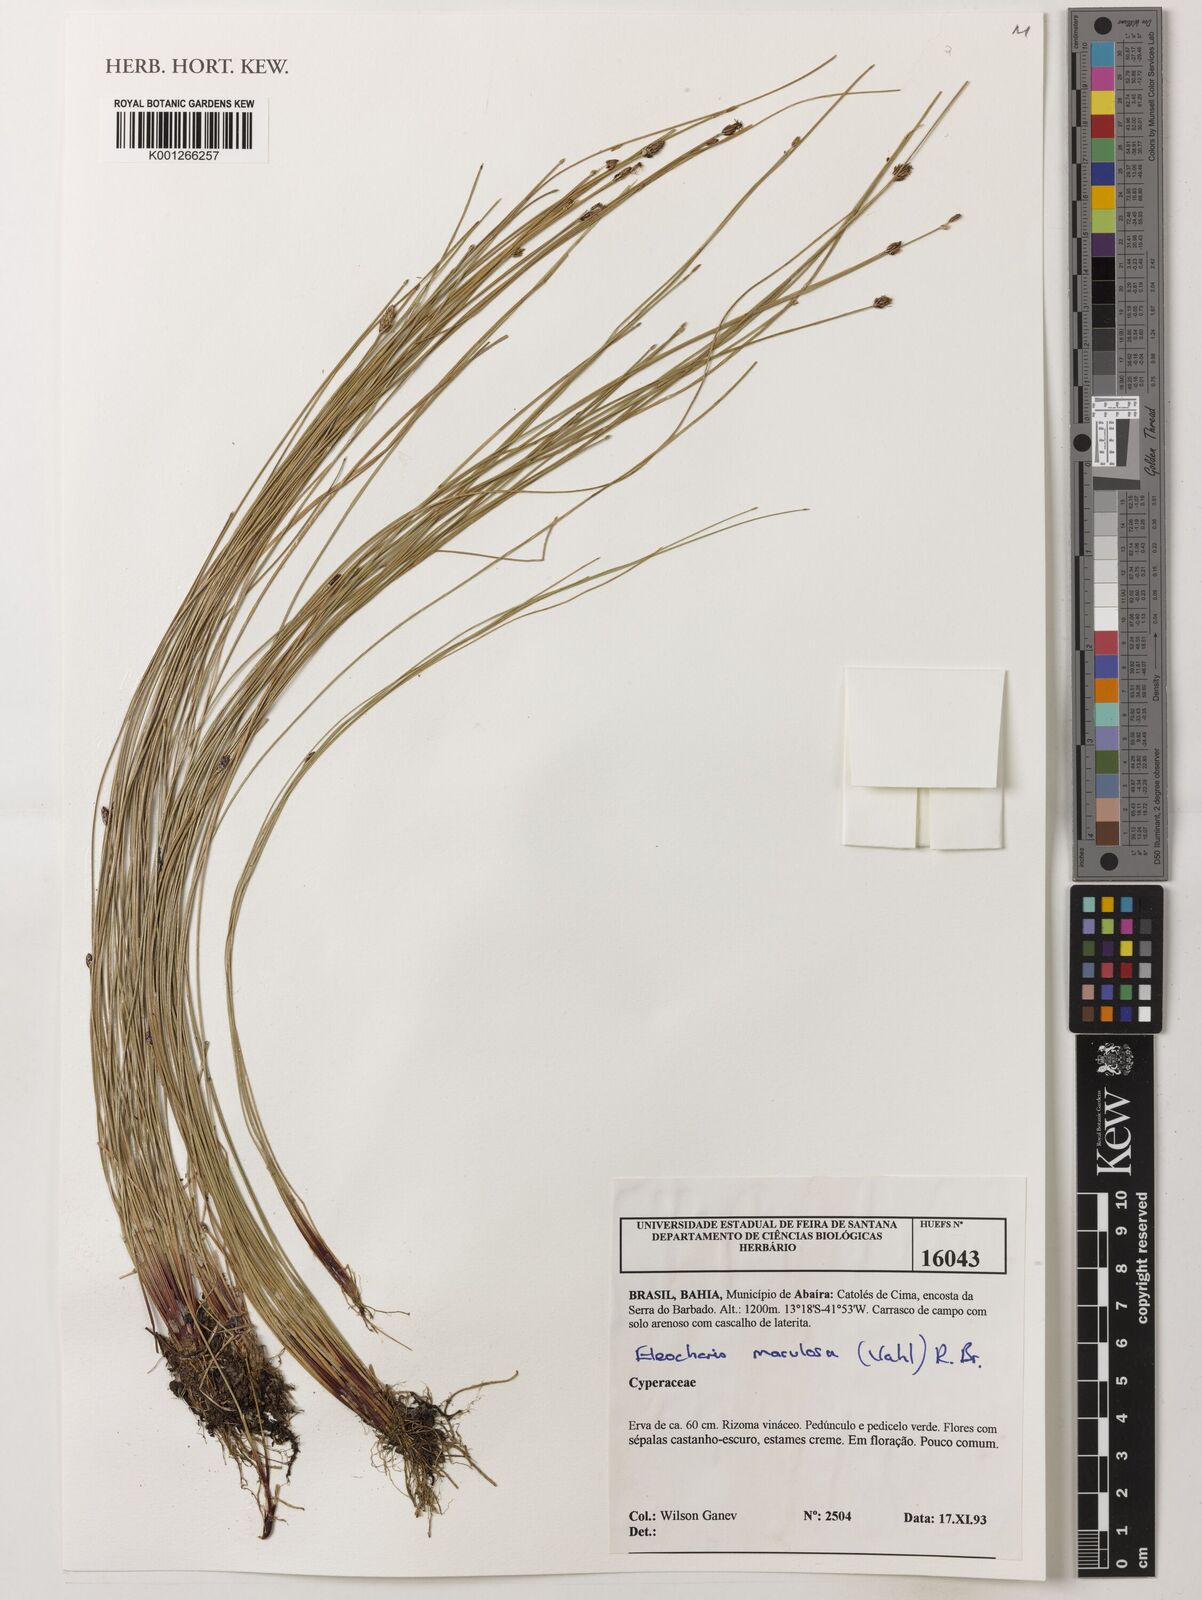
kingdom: Plantae
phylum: Tracheophyta
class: Liliopsida
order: Poales
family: Cyperaceae
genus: Eleocharis
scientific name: Eleocharis maculosa
